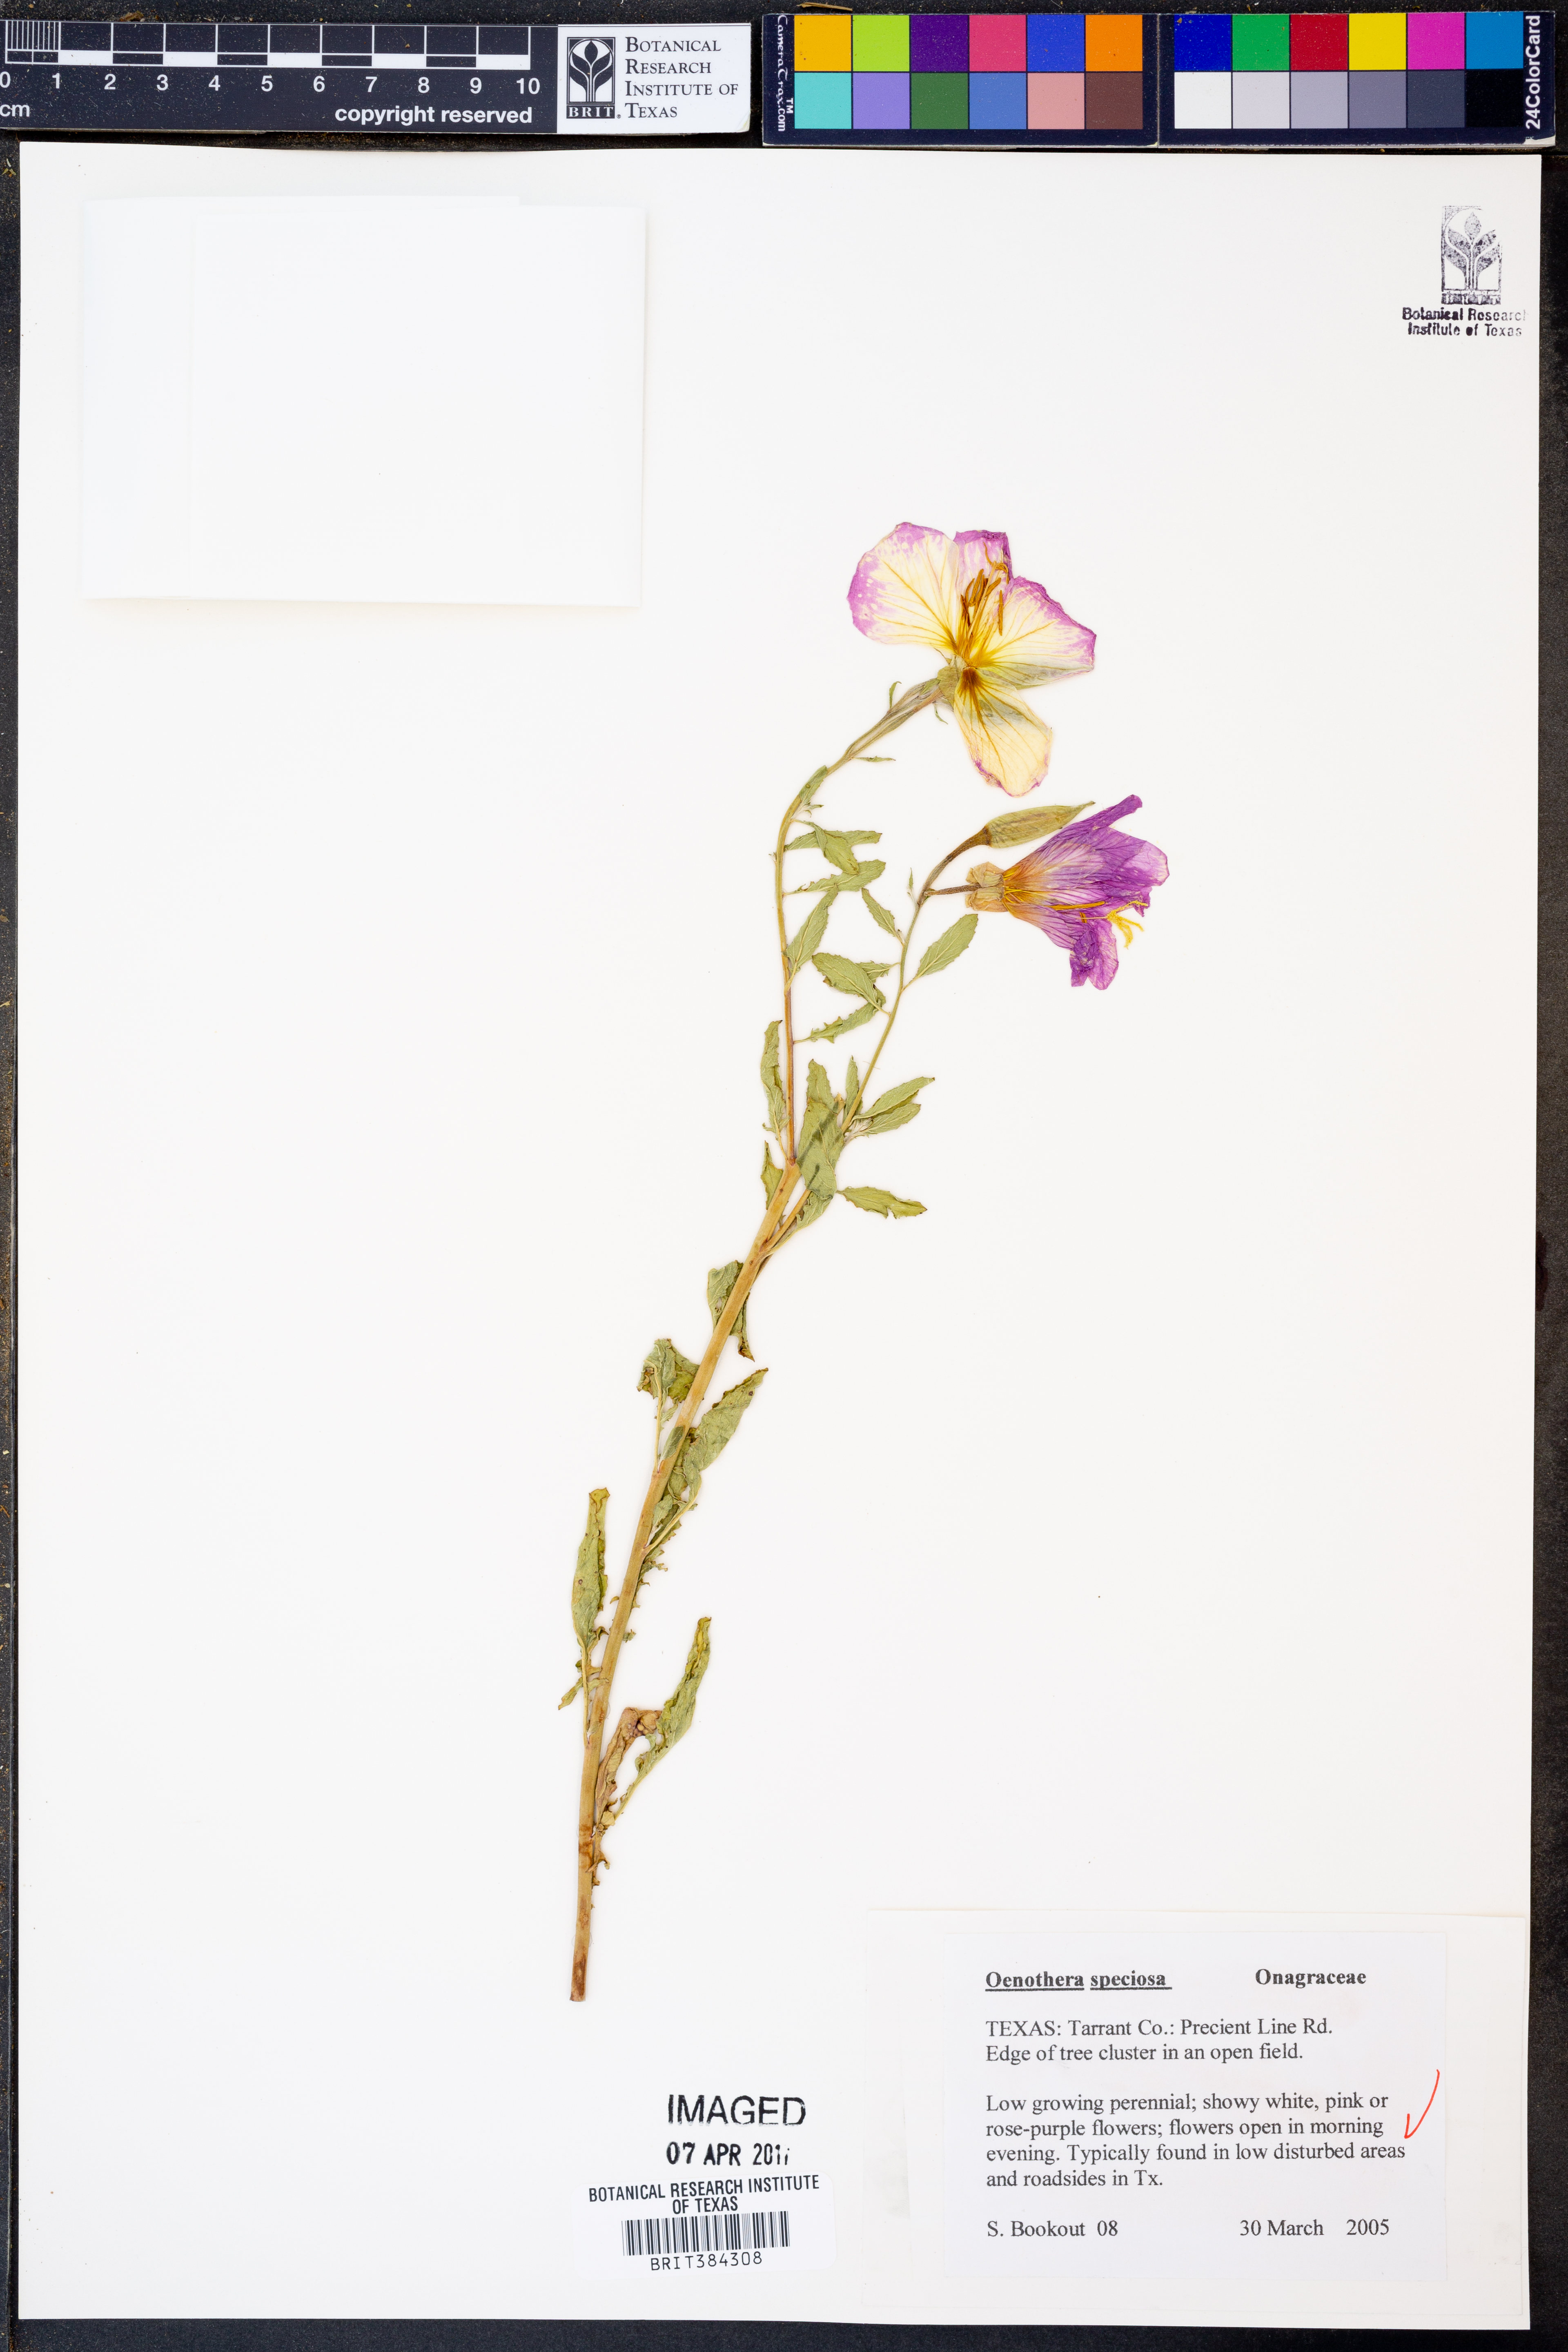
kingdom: Plantae
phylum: Tracheophyta
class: Magnoliopsida
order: Myrtales
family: Onagraceae
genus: Oenothera
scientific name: Oenothera speciosa
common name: White evening-primrose
